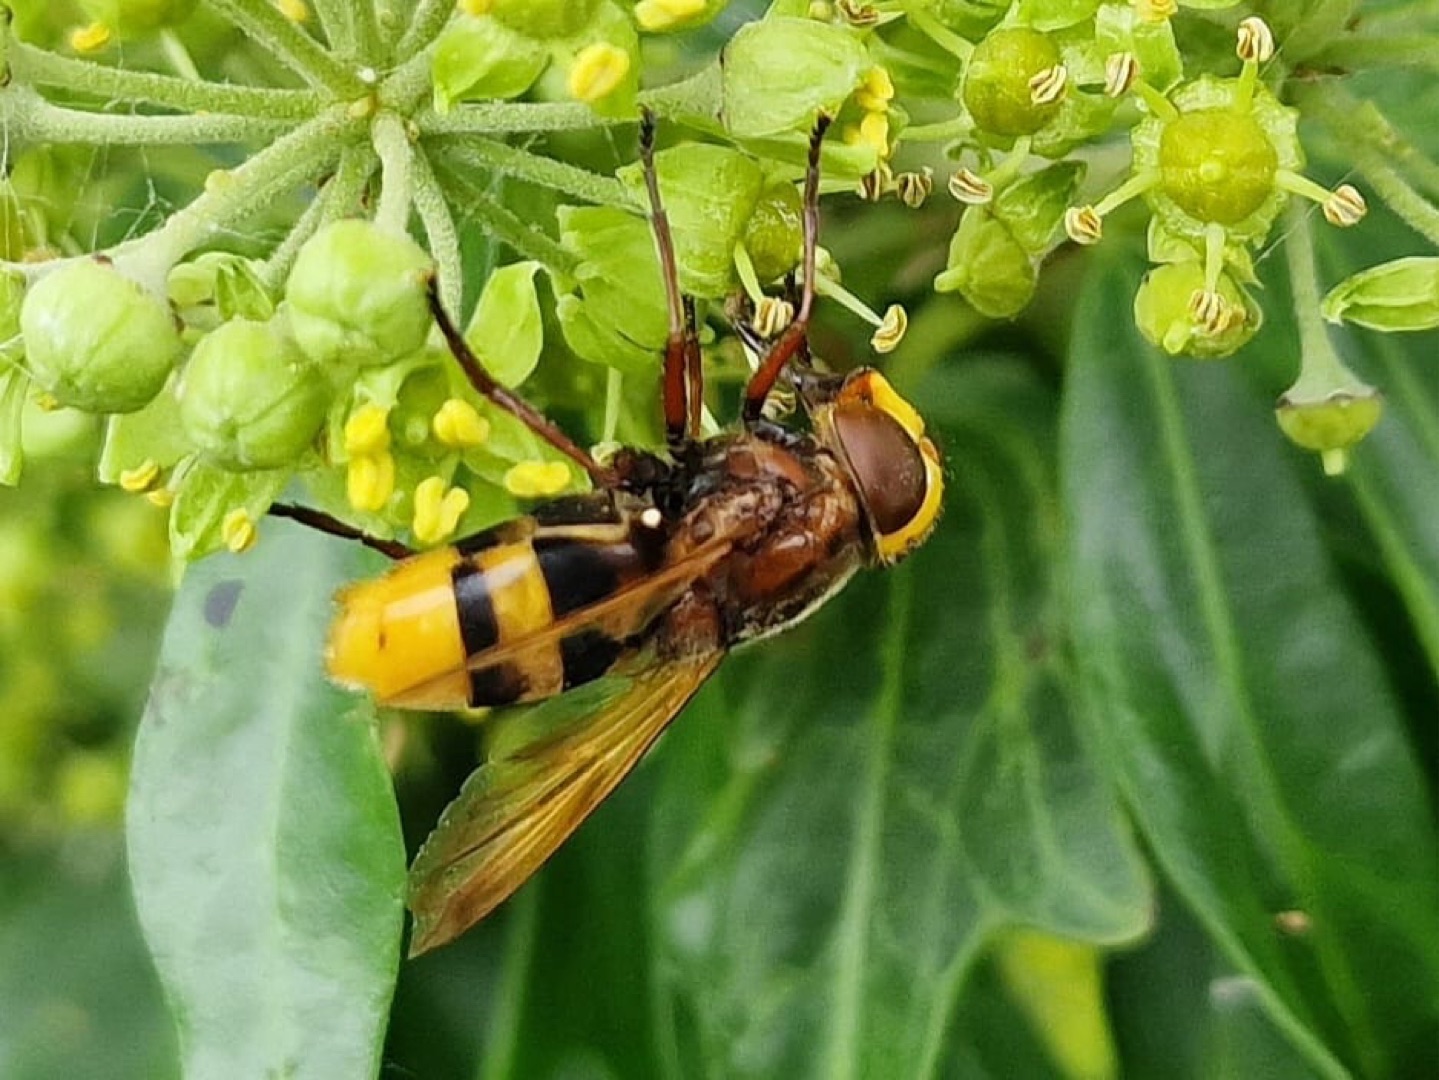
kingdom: Animalia
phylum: Arthropoda
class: Insecta
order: Diptera
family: Syrphidae
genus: Volucella
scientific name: Volucella zonaria
